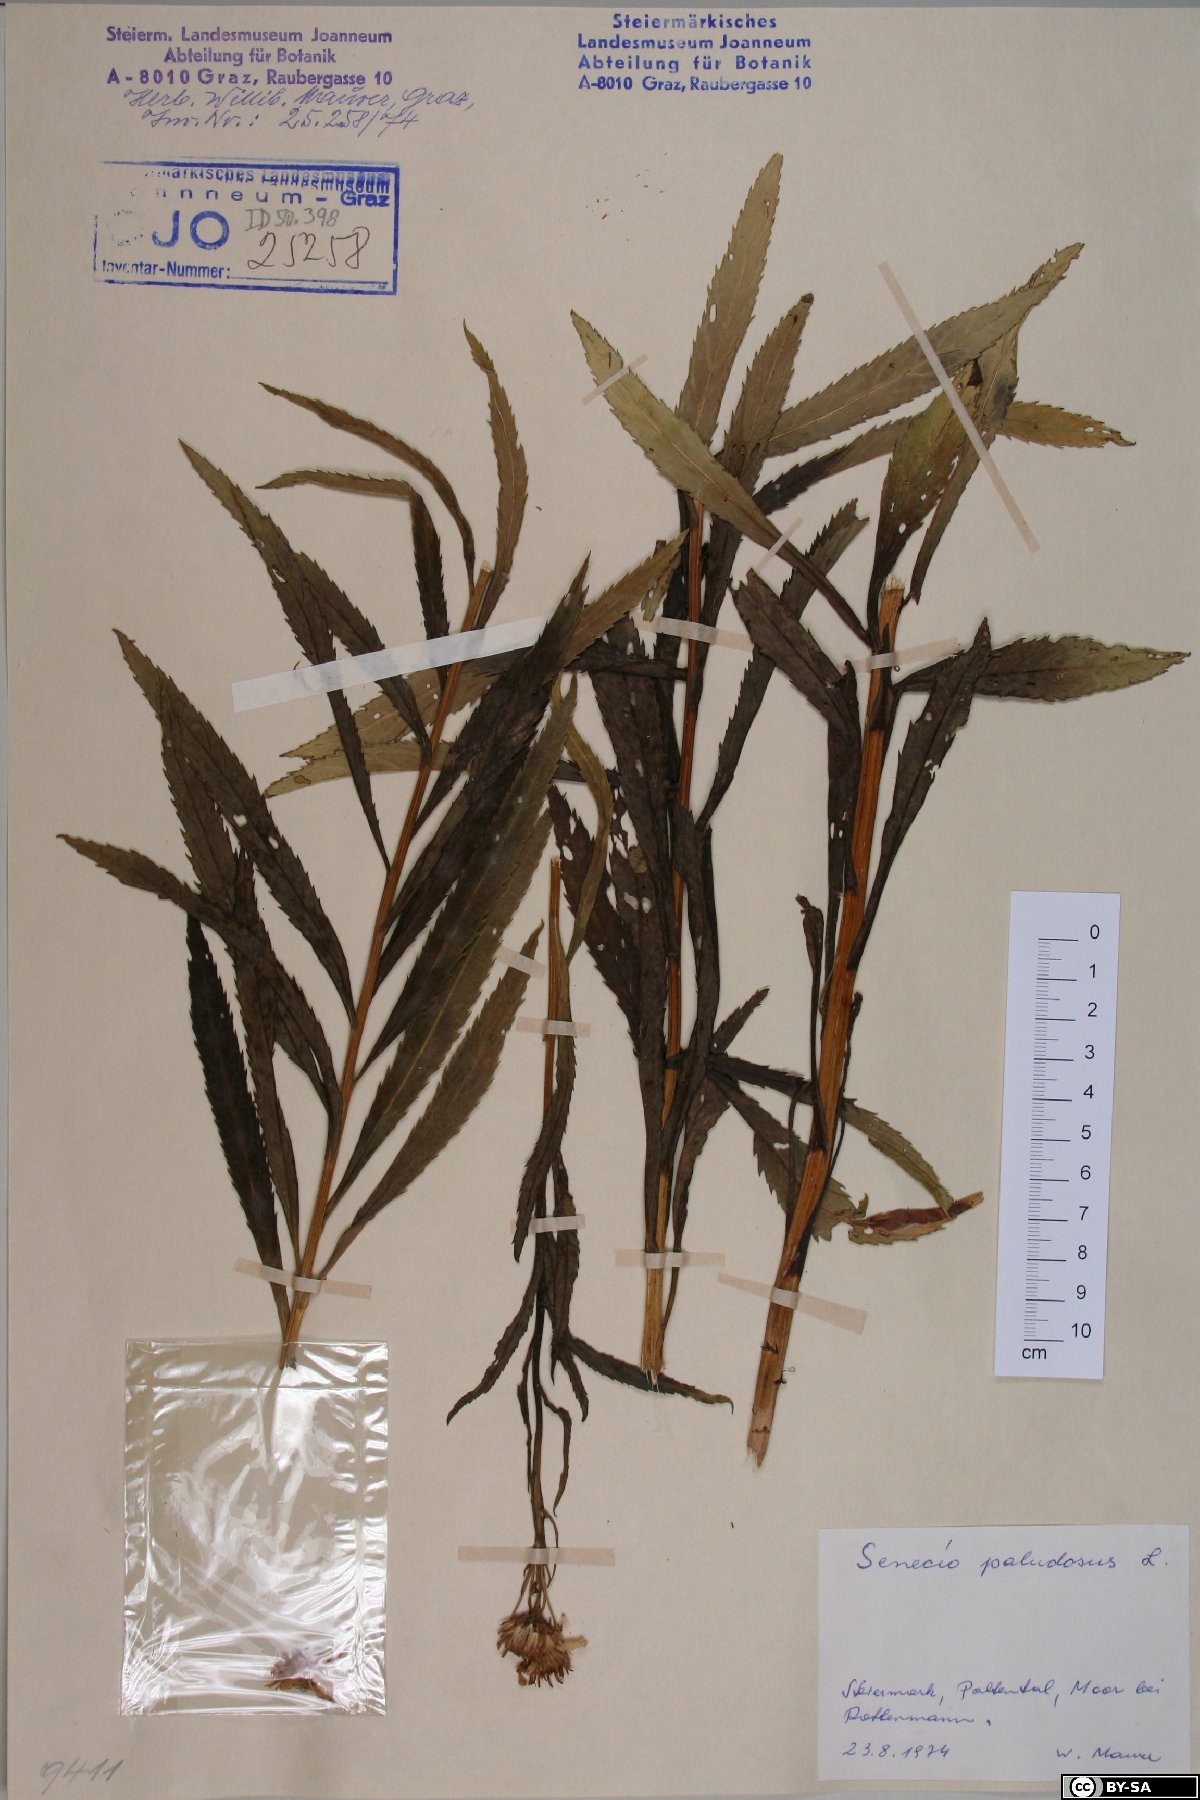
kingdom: Plantae
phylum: Tracheophyta
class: Magnoliopsida
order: Asterales
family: Asteraceae
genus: Jacobaea
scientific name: Jacobaea paludosa
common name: Fen ragwort
